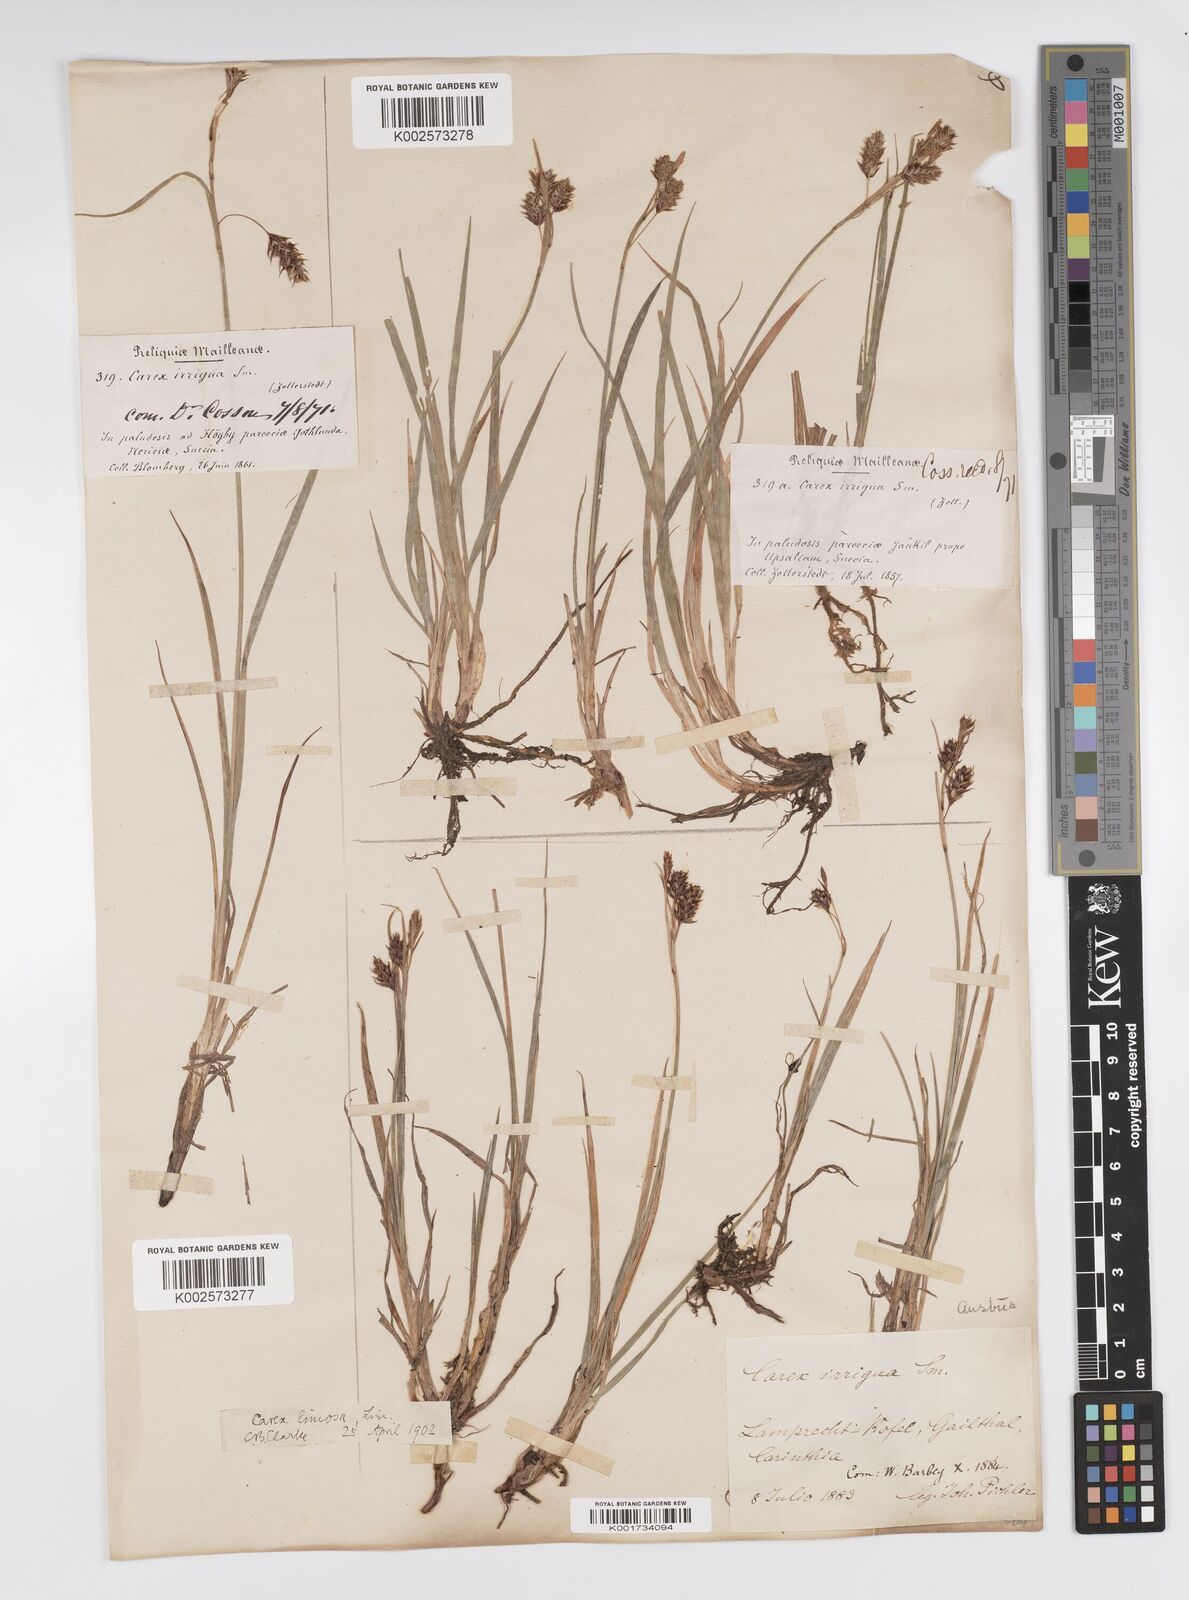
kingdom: Plantae
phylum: Tracheophyta
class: Liliopsida
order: Poales
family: Cyperaceae
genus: Carex
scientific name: Carex magellanica
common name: Bog sedge
